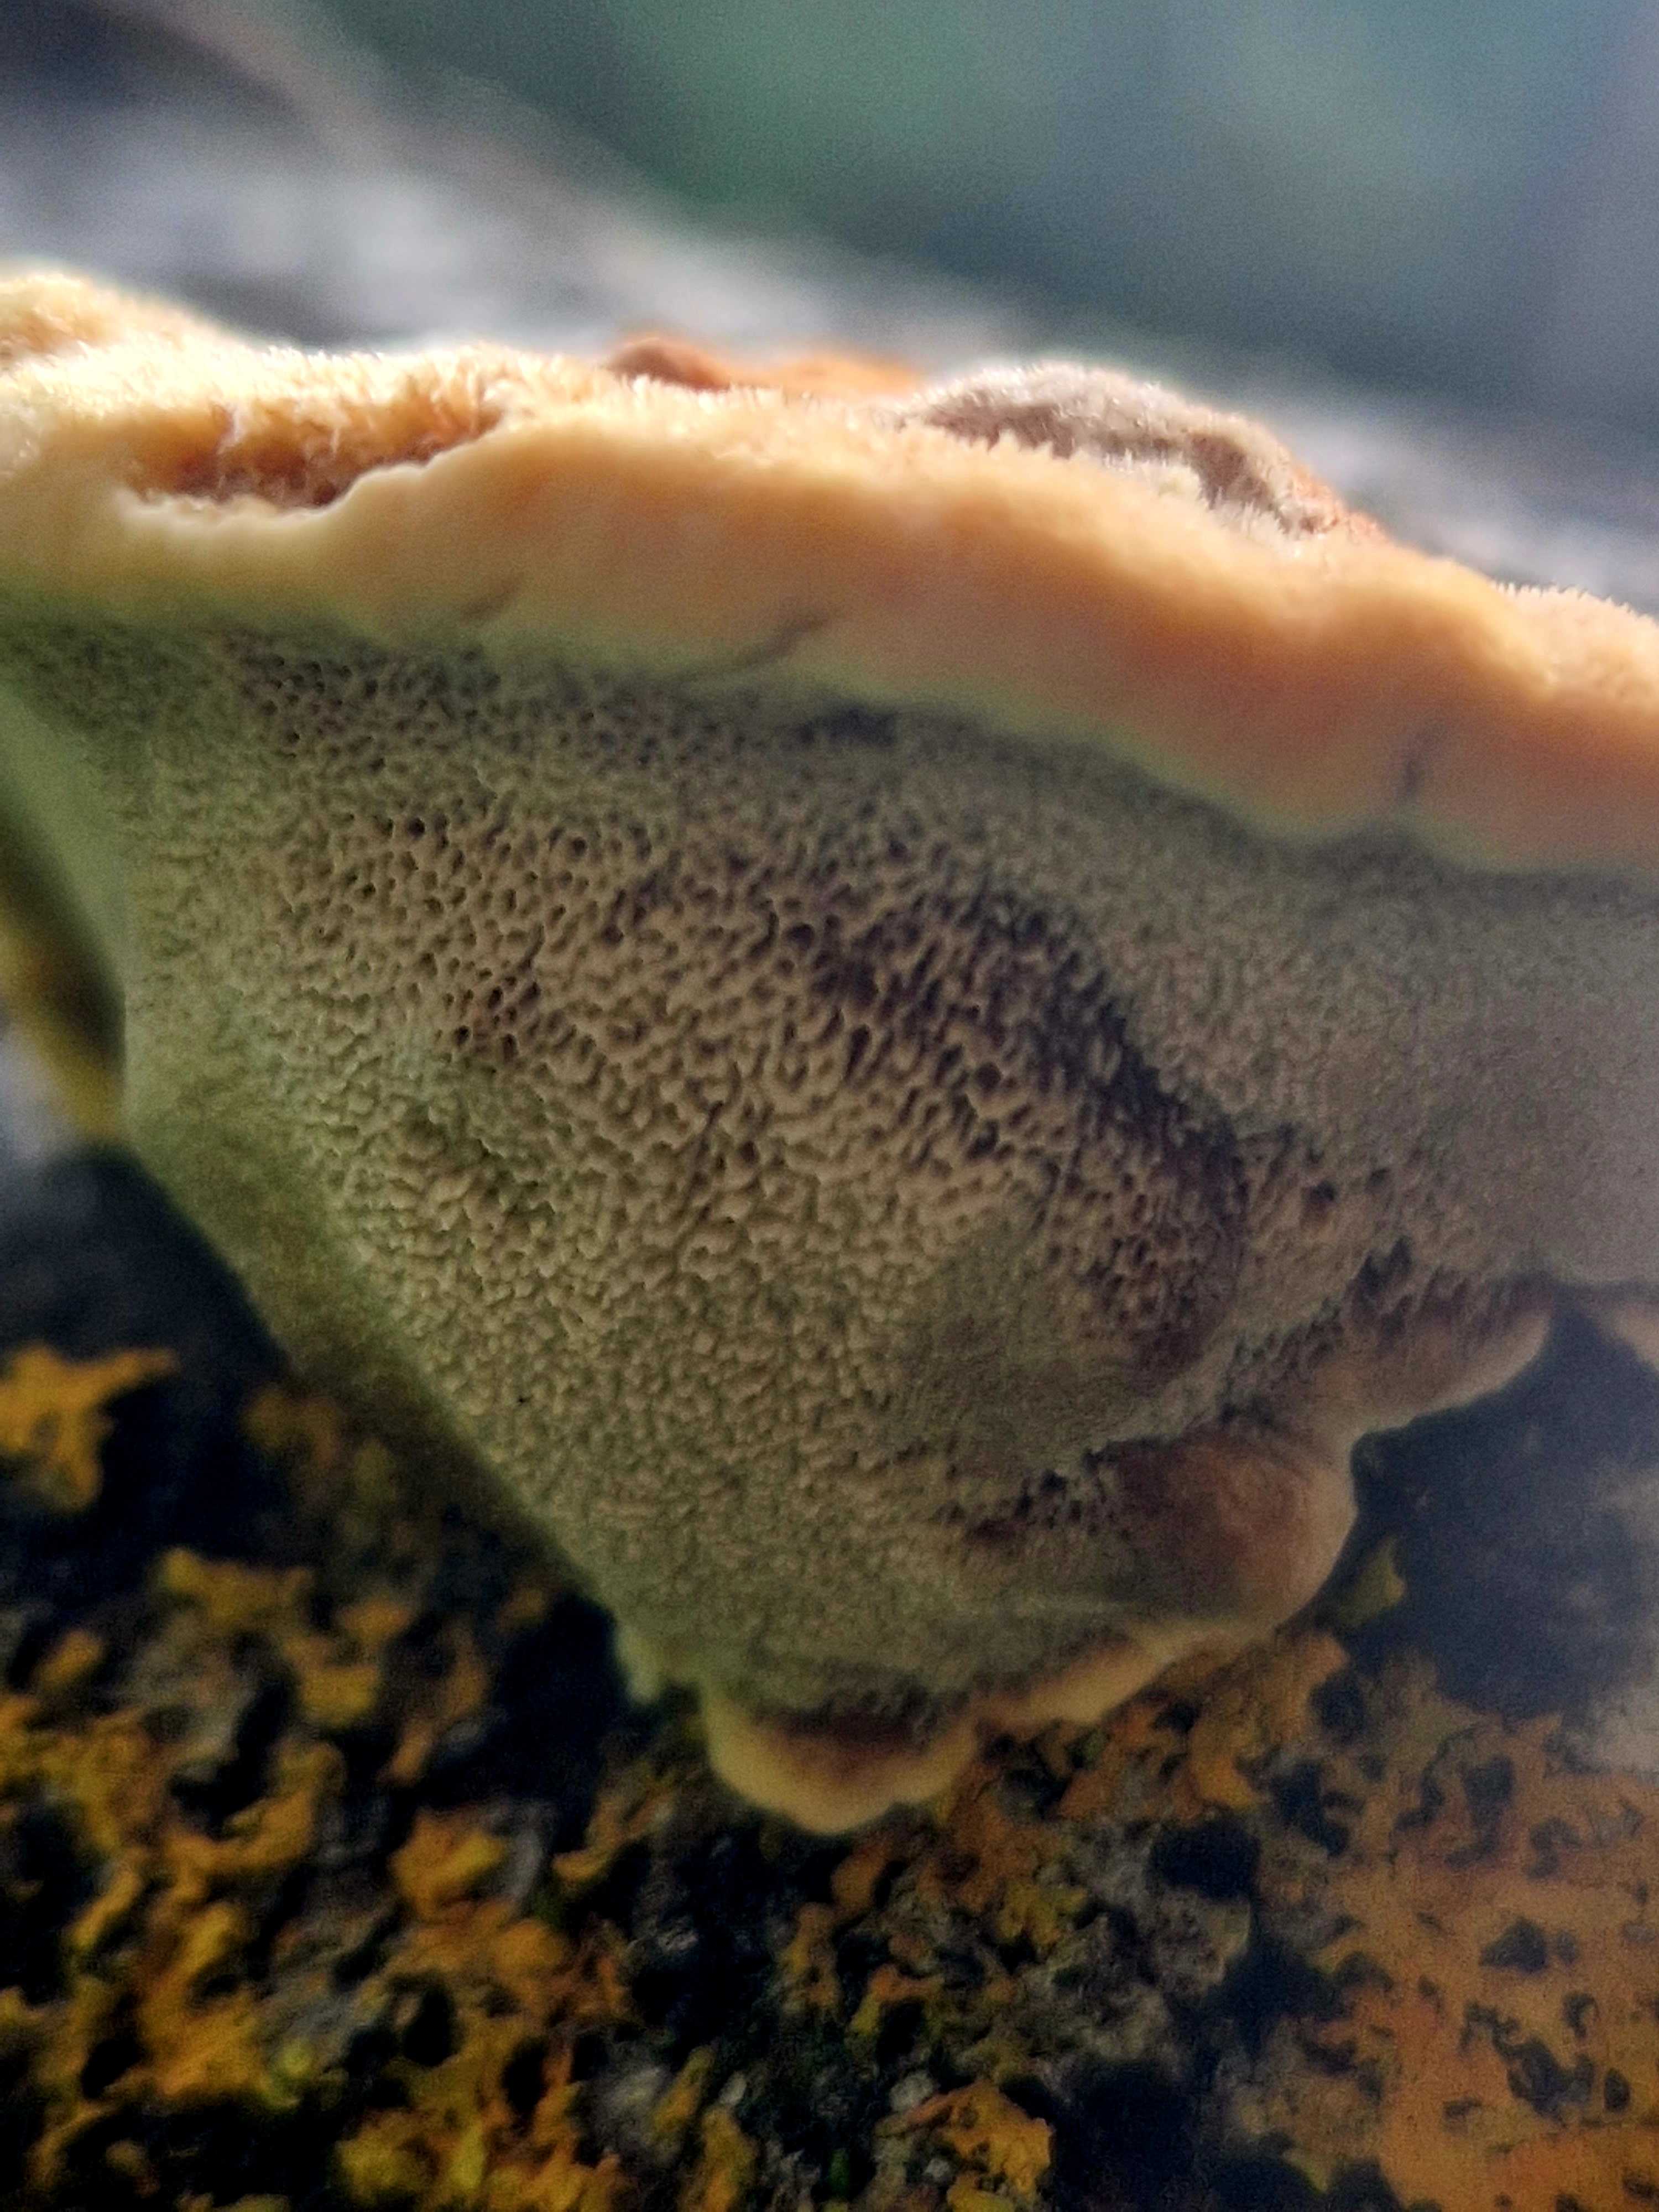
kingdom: Fungi
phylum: Basidiomycota
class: Agaricomycetes
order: Hymenochaetales
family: Hymenochaetaceae
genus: Inocutis
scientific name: Inocutis rheades
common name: ræve-spejlporesvamp
